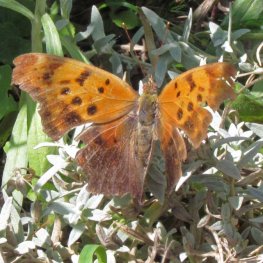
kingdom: Animalia
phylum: Arthropoda
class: Insecta
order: Lepidoptera
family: Nymphalidae
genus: Polygonia
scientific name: Polygonia interrogationis
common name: Question Mark
